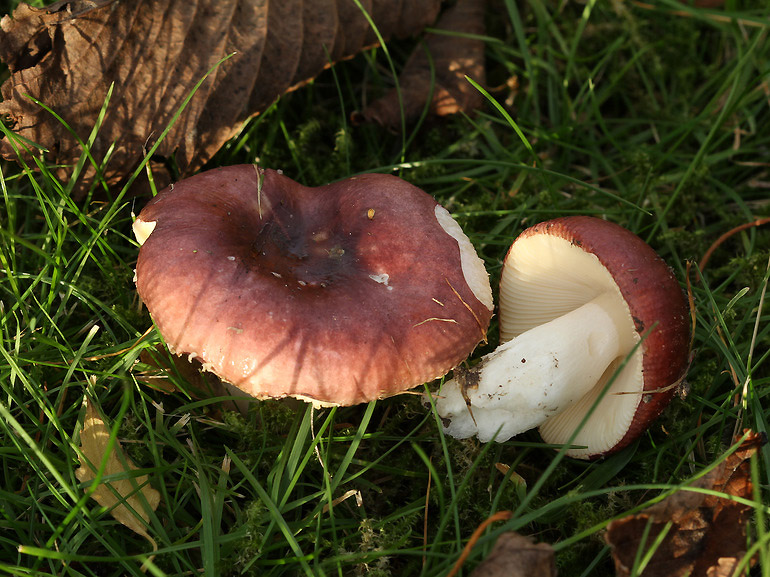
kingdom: Fungi
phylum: Basidiomycota
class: Agaricomycetes
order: Russulales
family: Russulaceae
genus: Russula
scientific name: Russula cessans
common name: fyrre-skørhat
